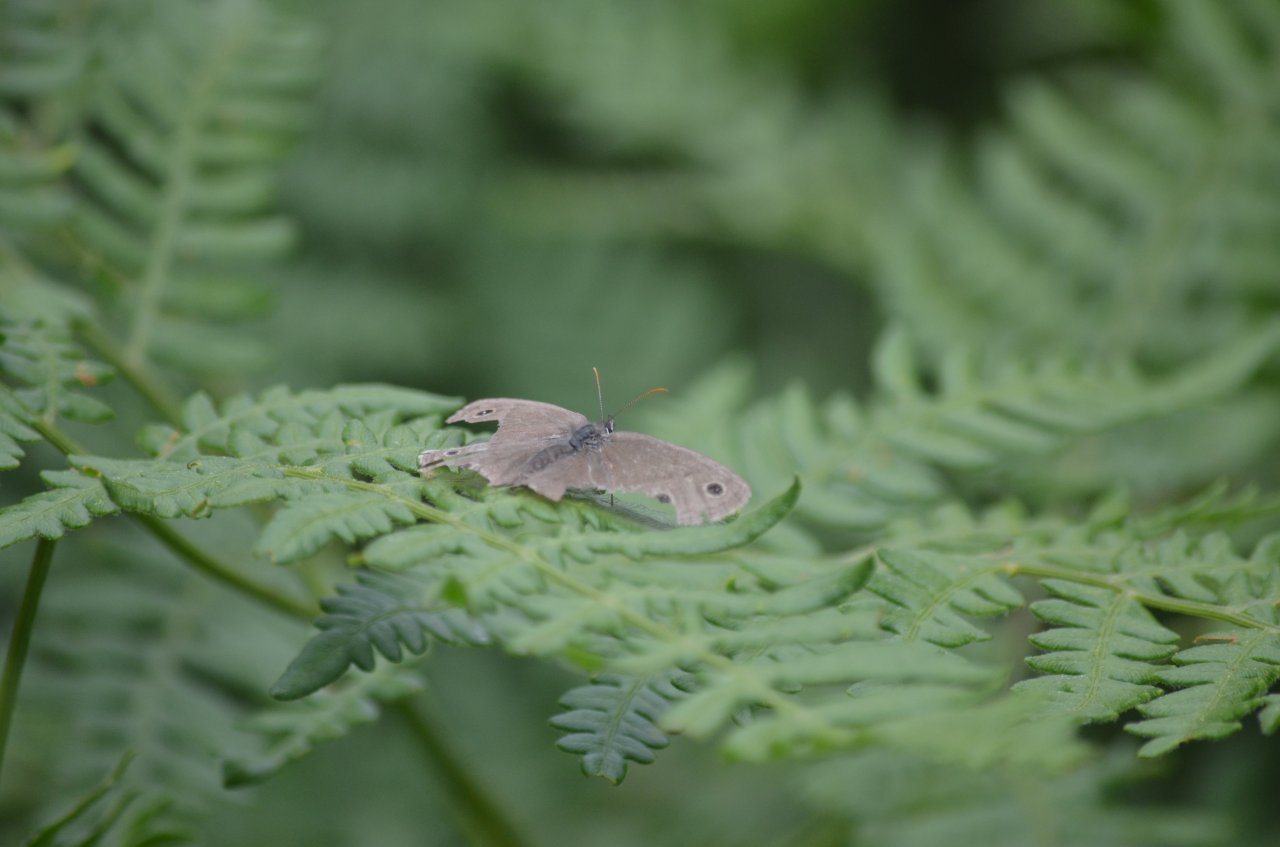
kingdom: Animalia
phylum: Arthropoda
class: Insecta
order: Lepidoptera
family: Nymphalidae
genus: Euptychia
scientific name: Euptychia cymela
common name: Little Wood Satyr
